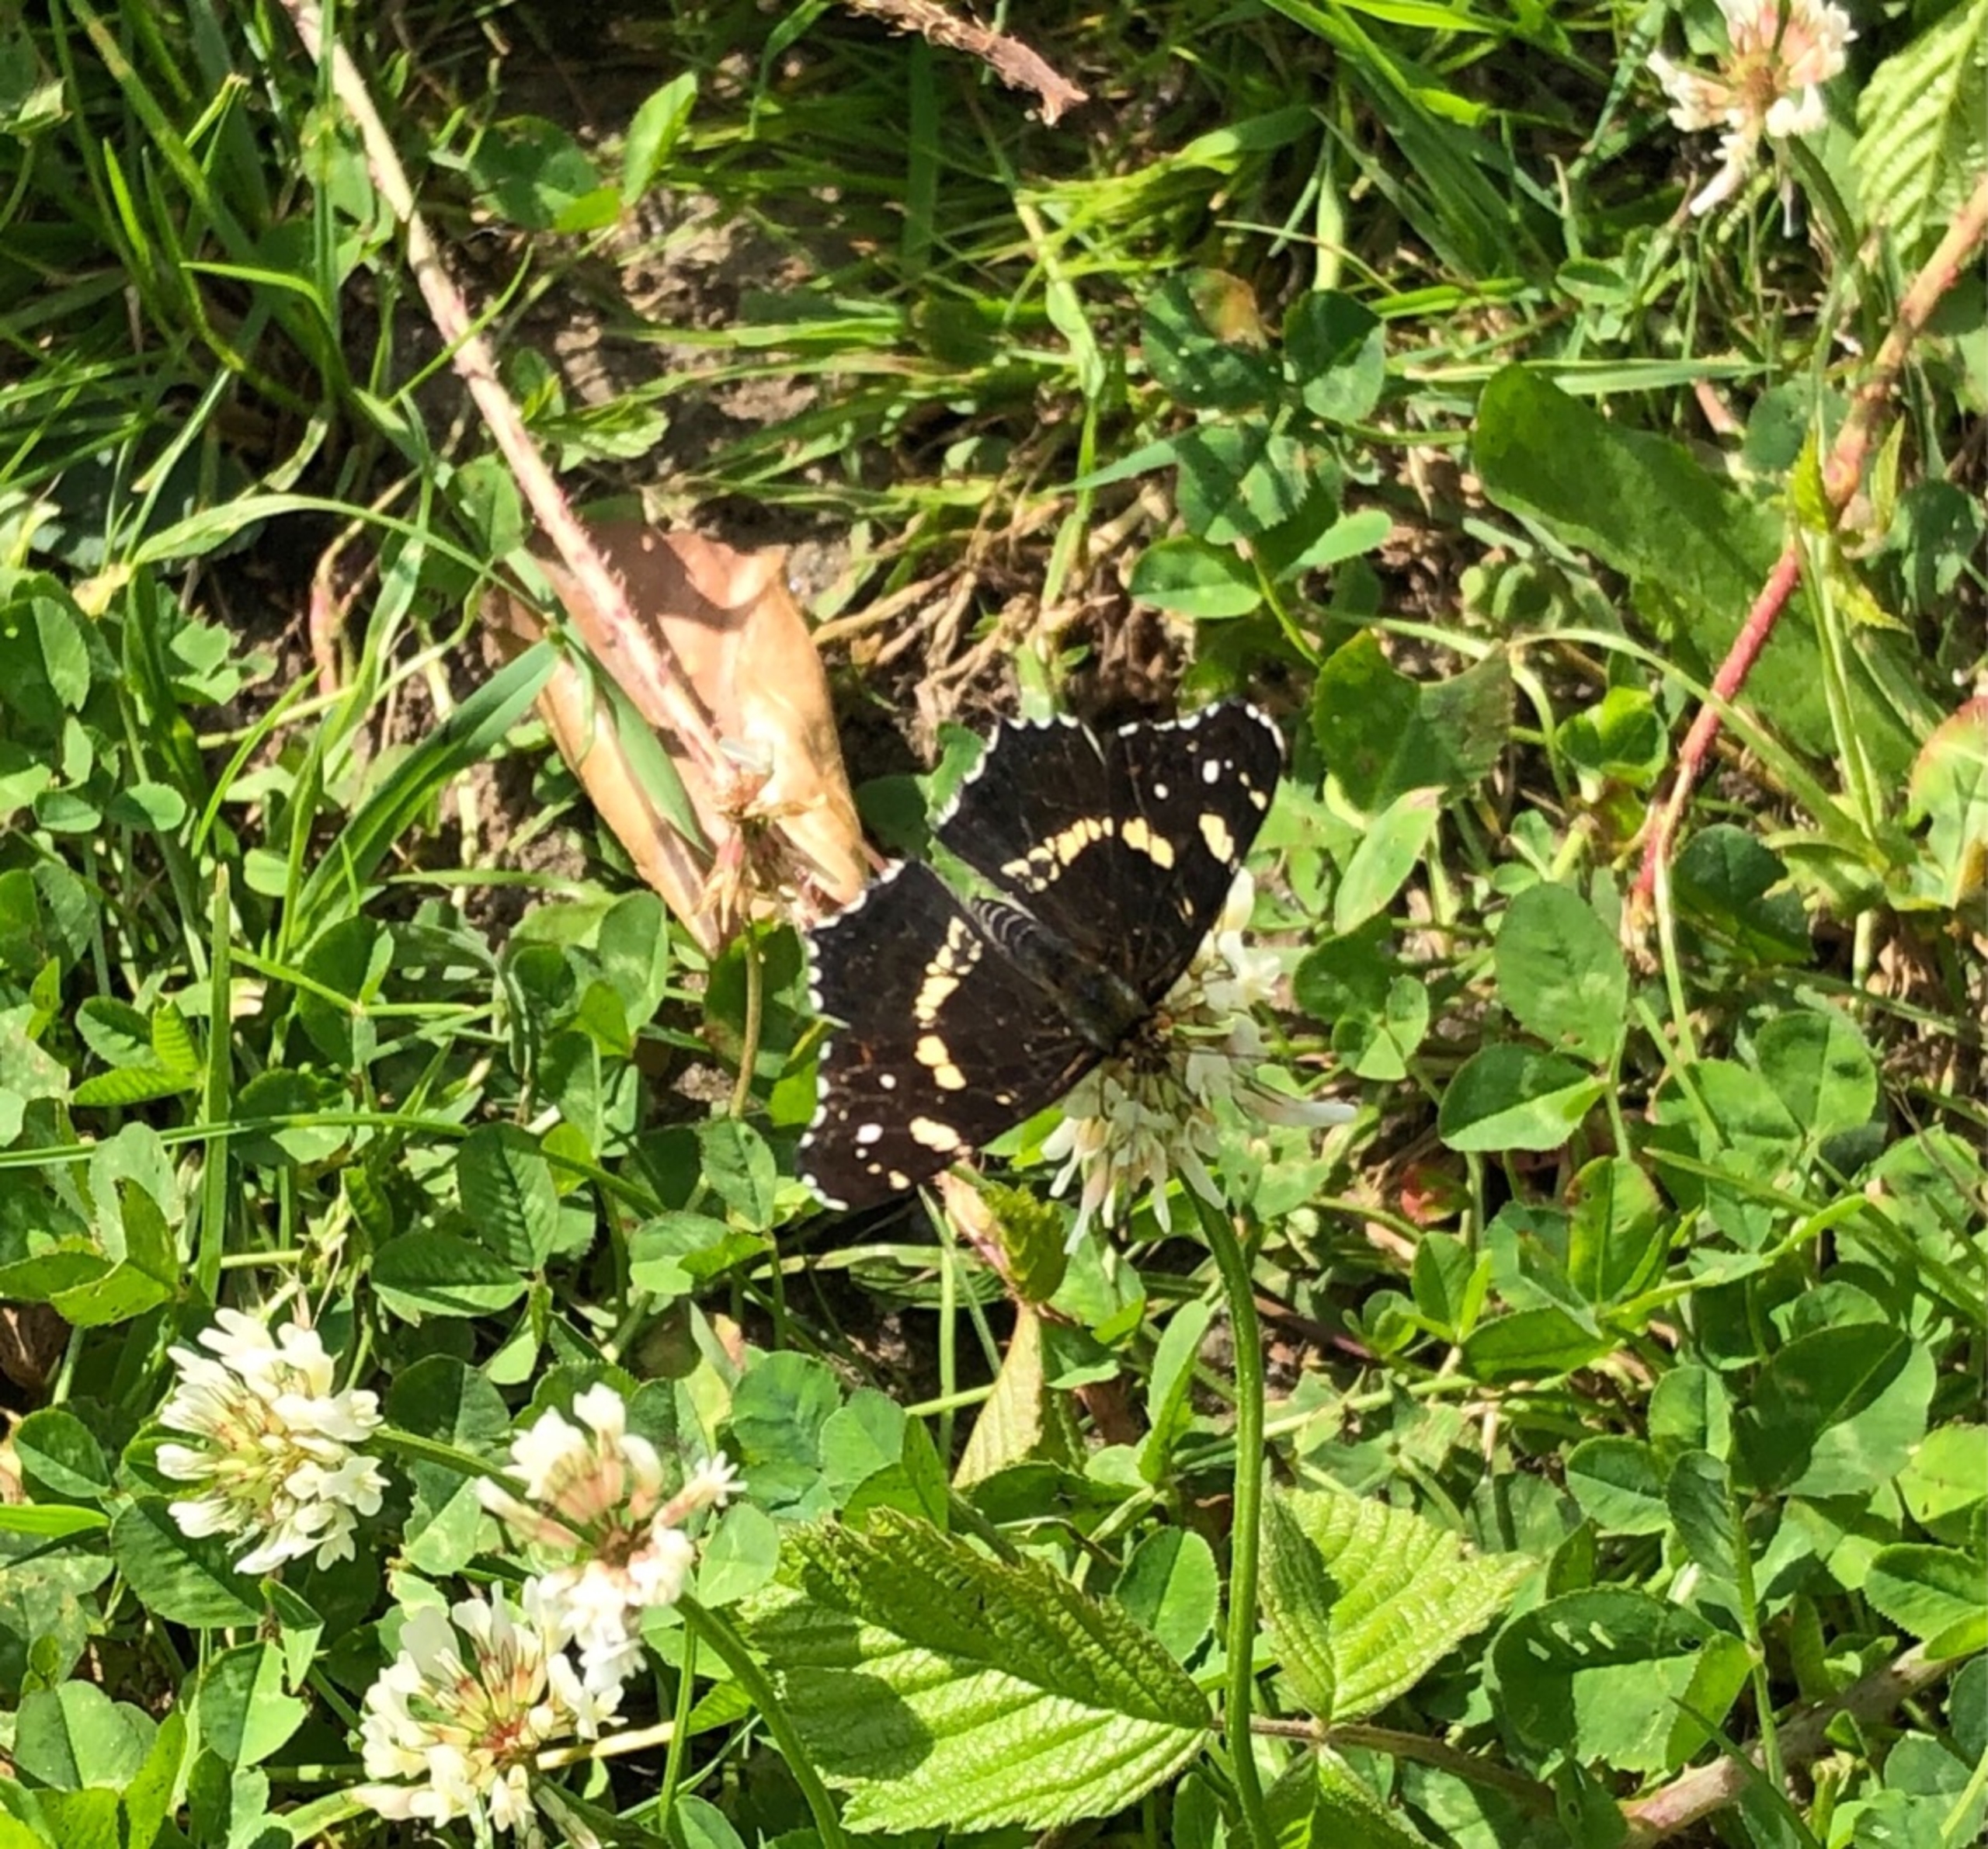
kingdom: Animalia
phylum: Arthropoda
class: Insecta
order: Lepidoptera
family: Nymphalidae
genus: Araschnia
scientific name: Araschnia levana
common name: Nældesommerfugl
